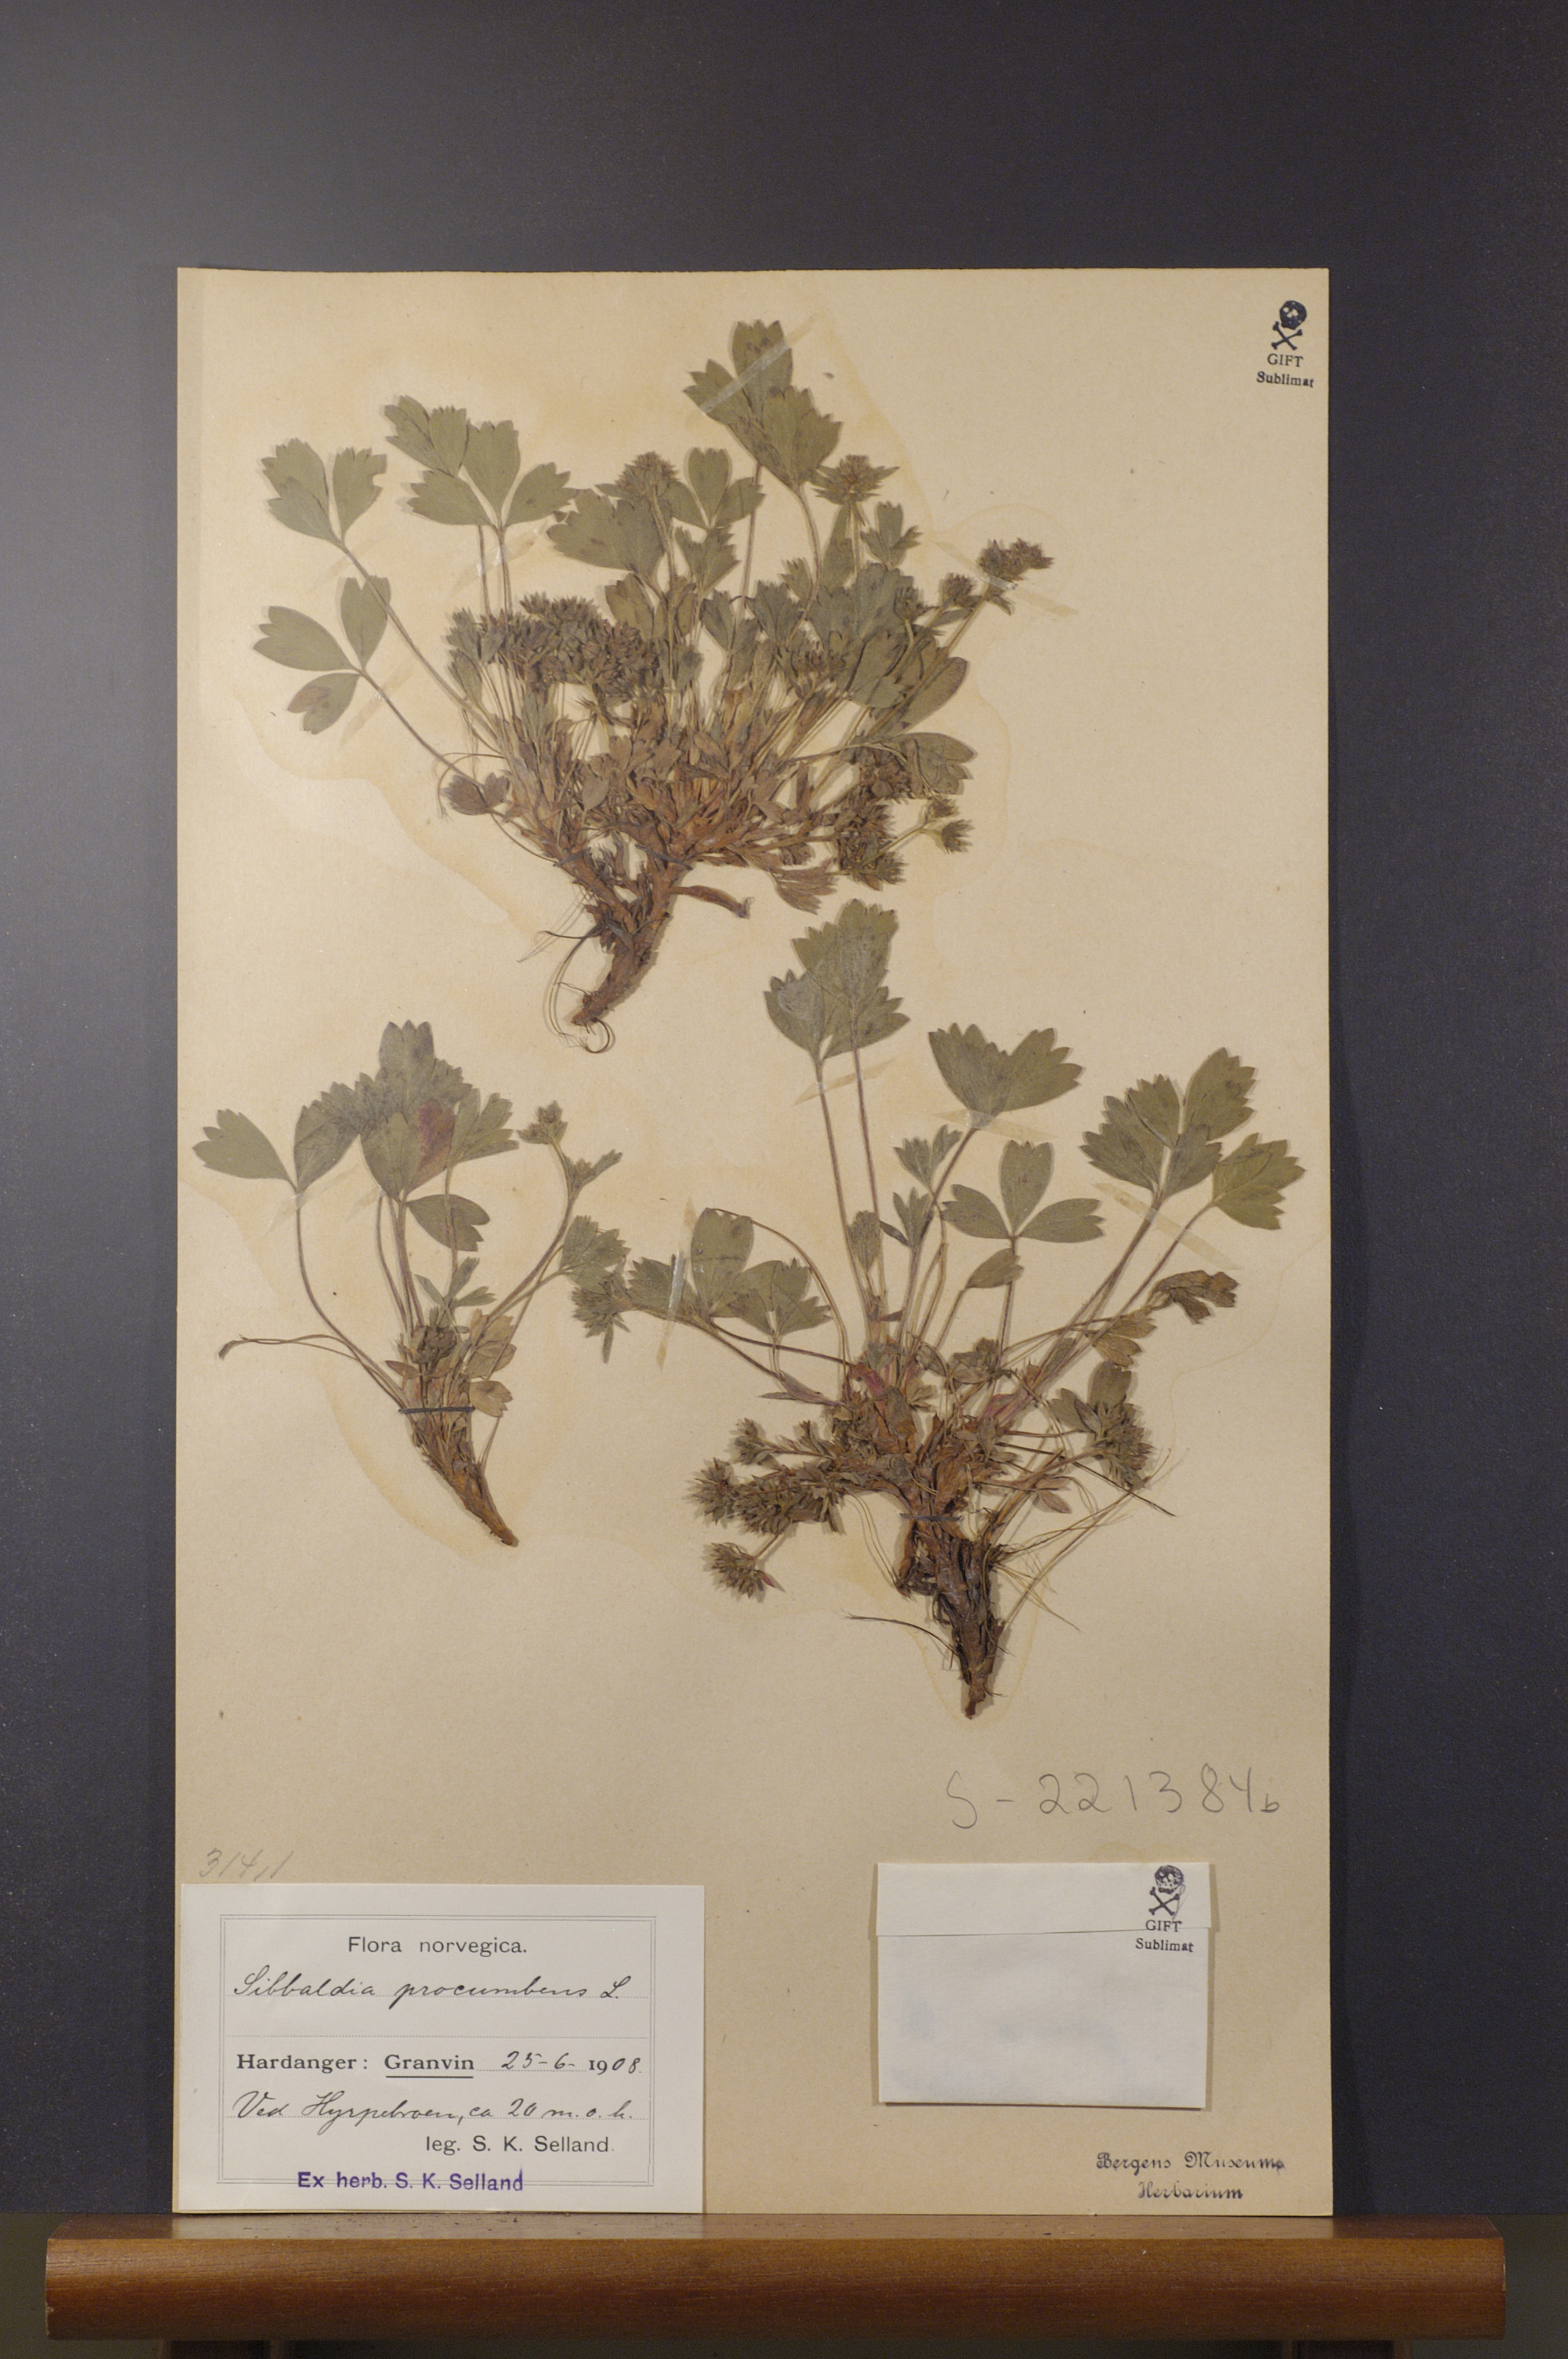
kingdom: Plantae
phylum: Tracheophyta
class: Magnoliopsida
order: Rosales
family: Rosaceae
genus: Sibbaldia
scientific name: Sibbaldia procumbens
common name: Creeping sibbaldia
